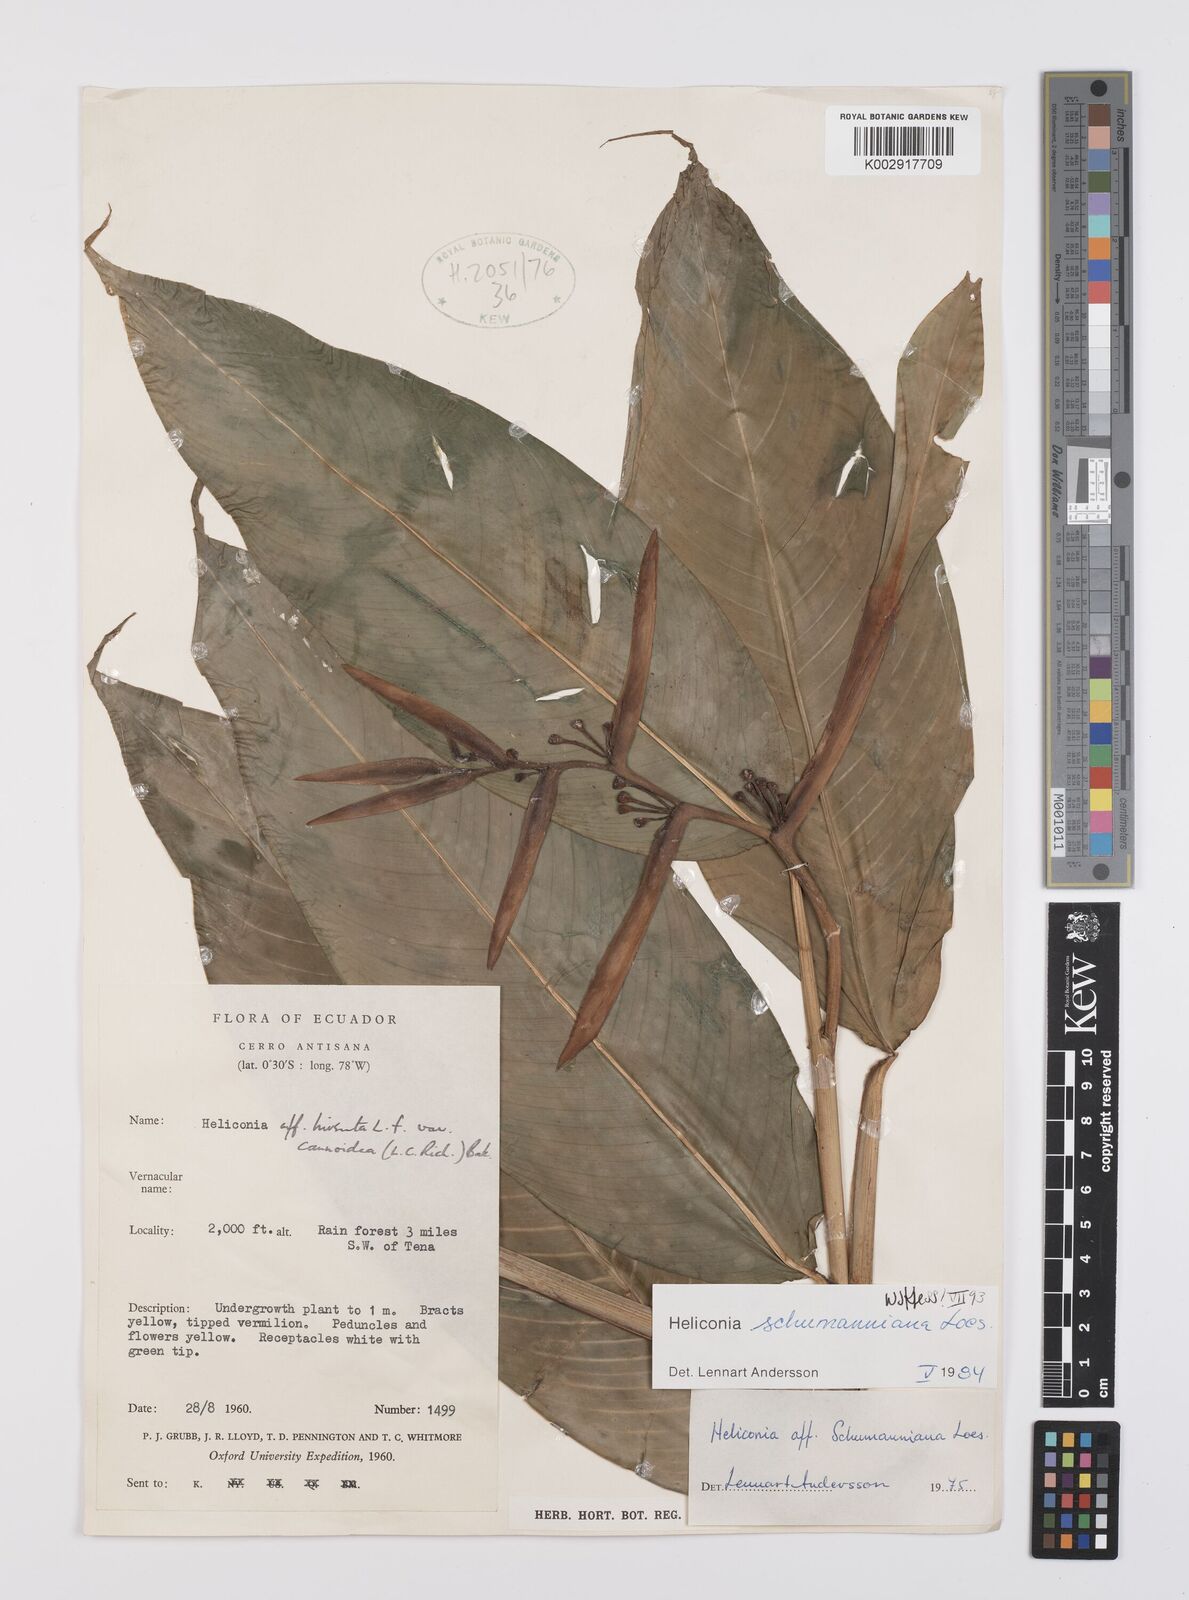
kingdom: Plantae
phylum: Tracheophyta
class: Liliopsida
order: Zingiberales
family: Heliconiaceae
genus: Heliconia
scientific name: Heliconia schumanniana
